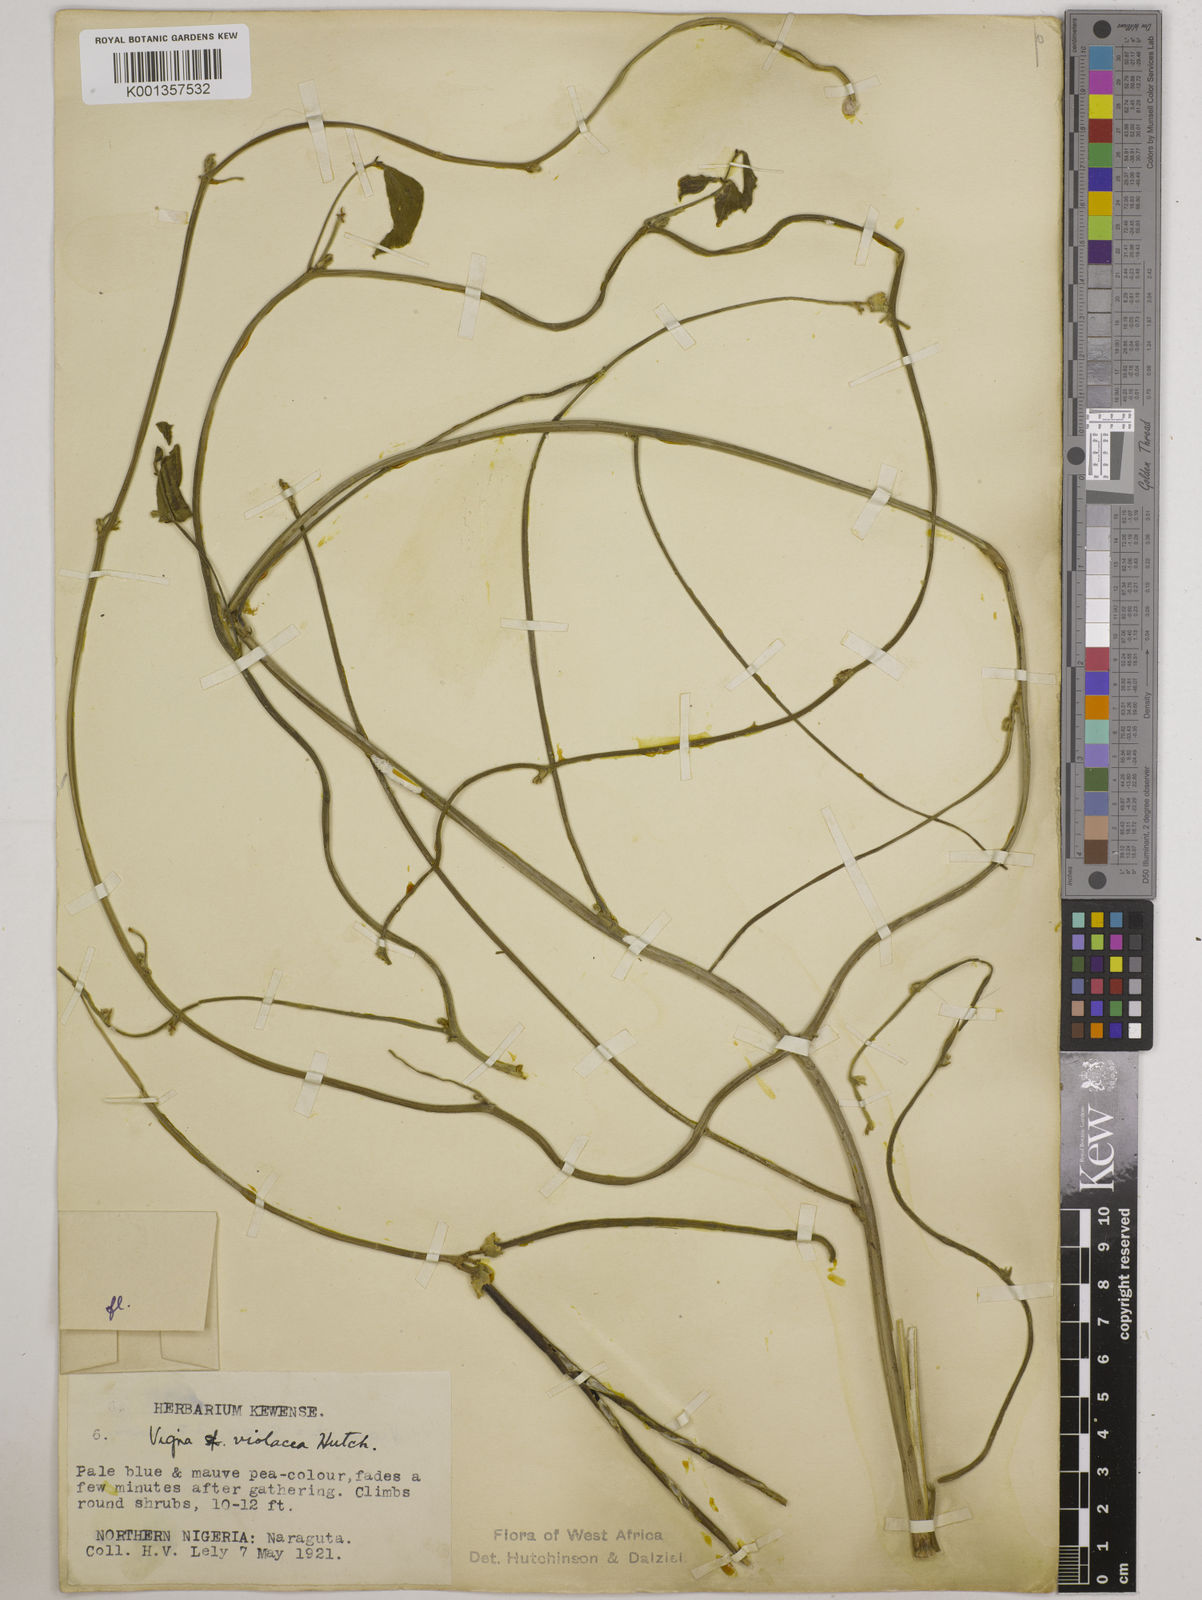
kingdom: Plantae
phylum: Tracheophyta
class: Magnoliopsida
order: Fabales
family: Fabaceae
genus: Vigna
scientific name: Vigna frutescens
